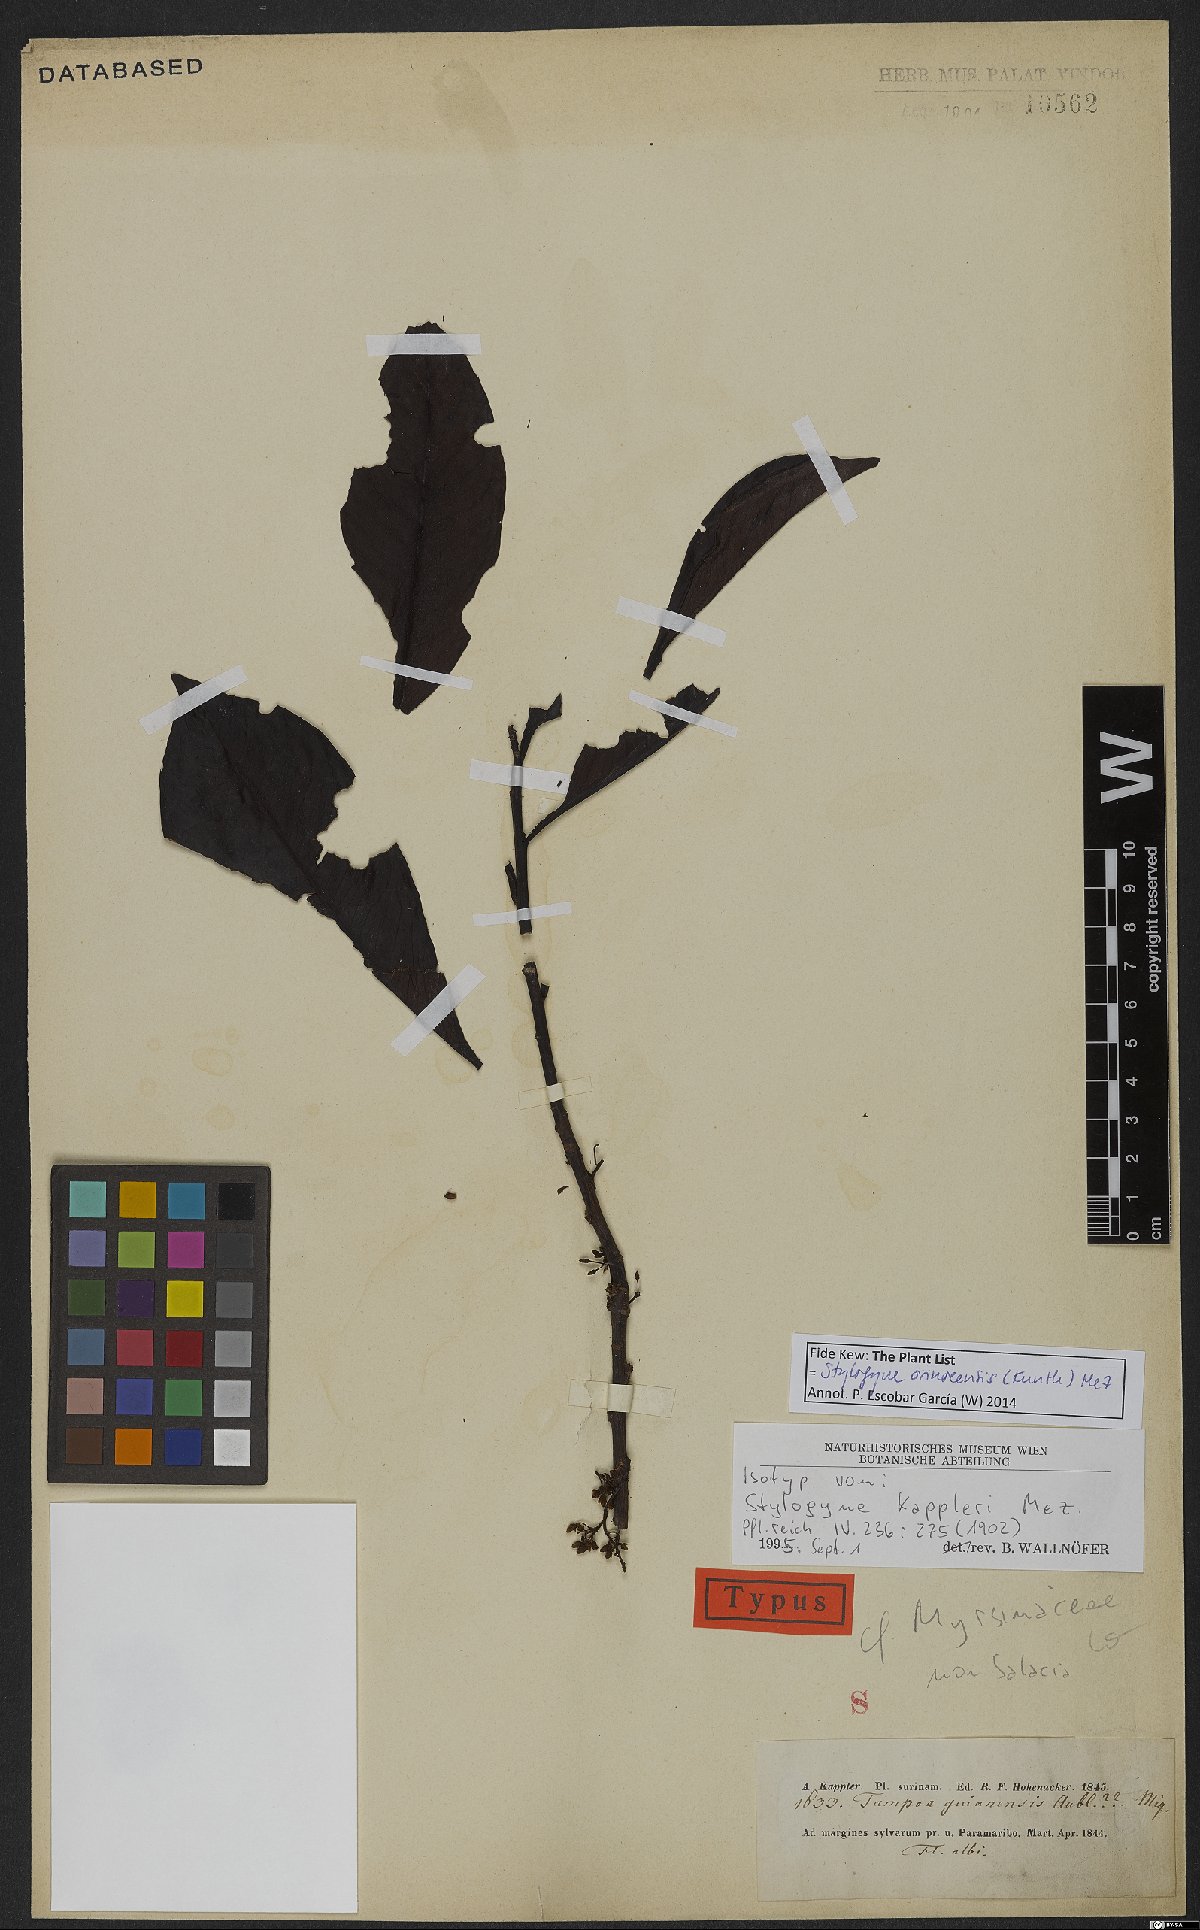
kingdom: Plantae
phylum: Tracheophyta
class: Magnoliopsida
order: Ericales
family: Primulaceae
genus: Stylogyne
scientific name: Stylogyne orinocensis
